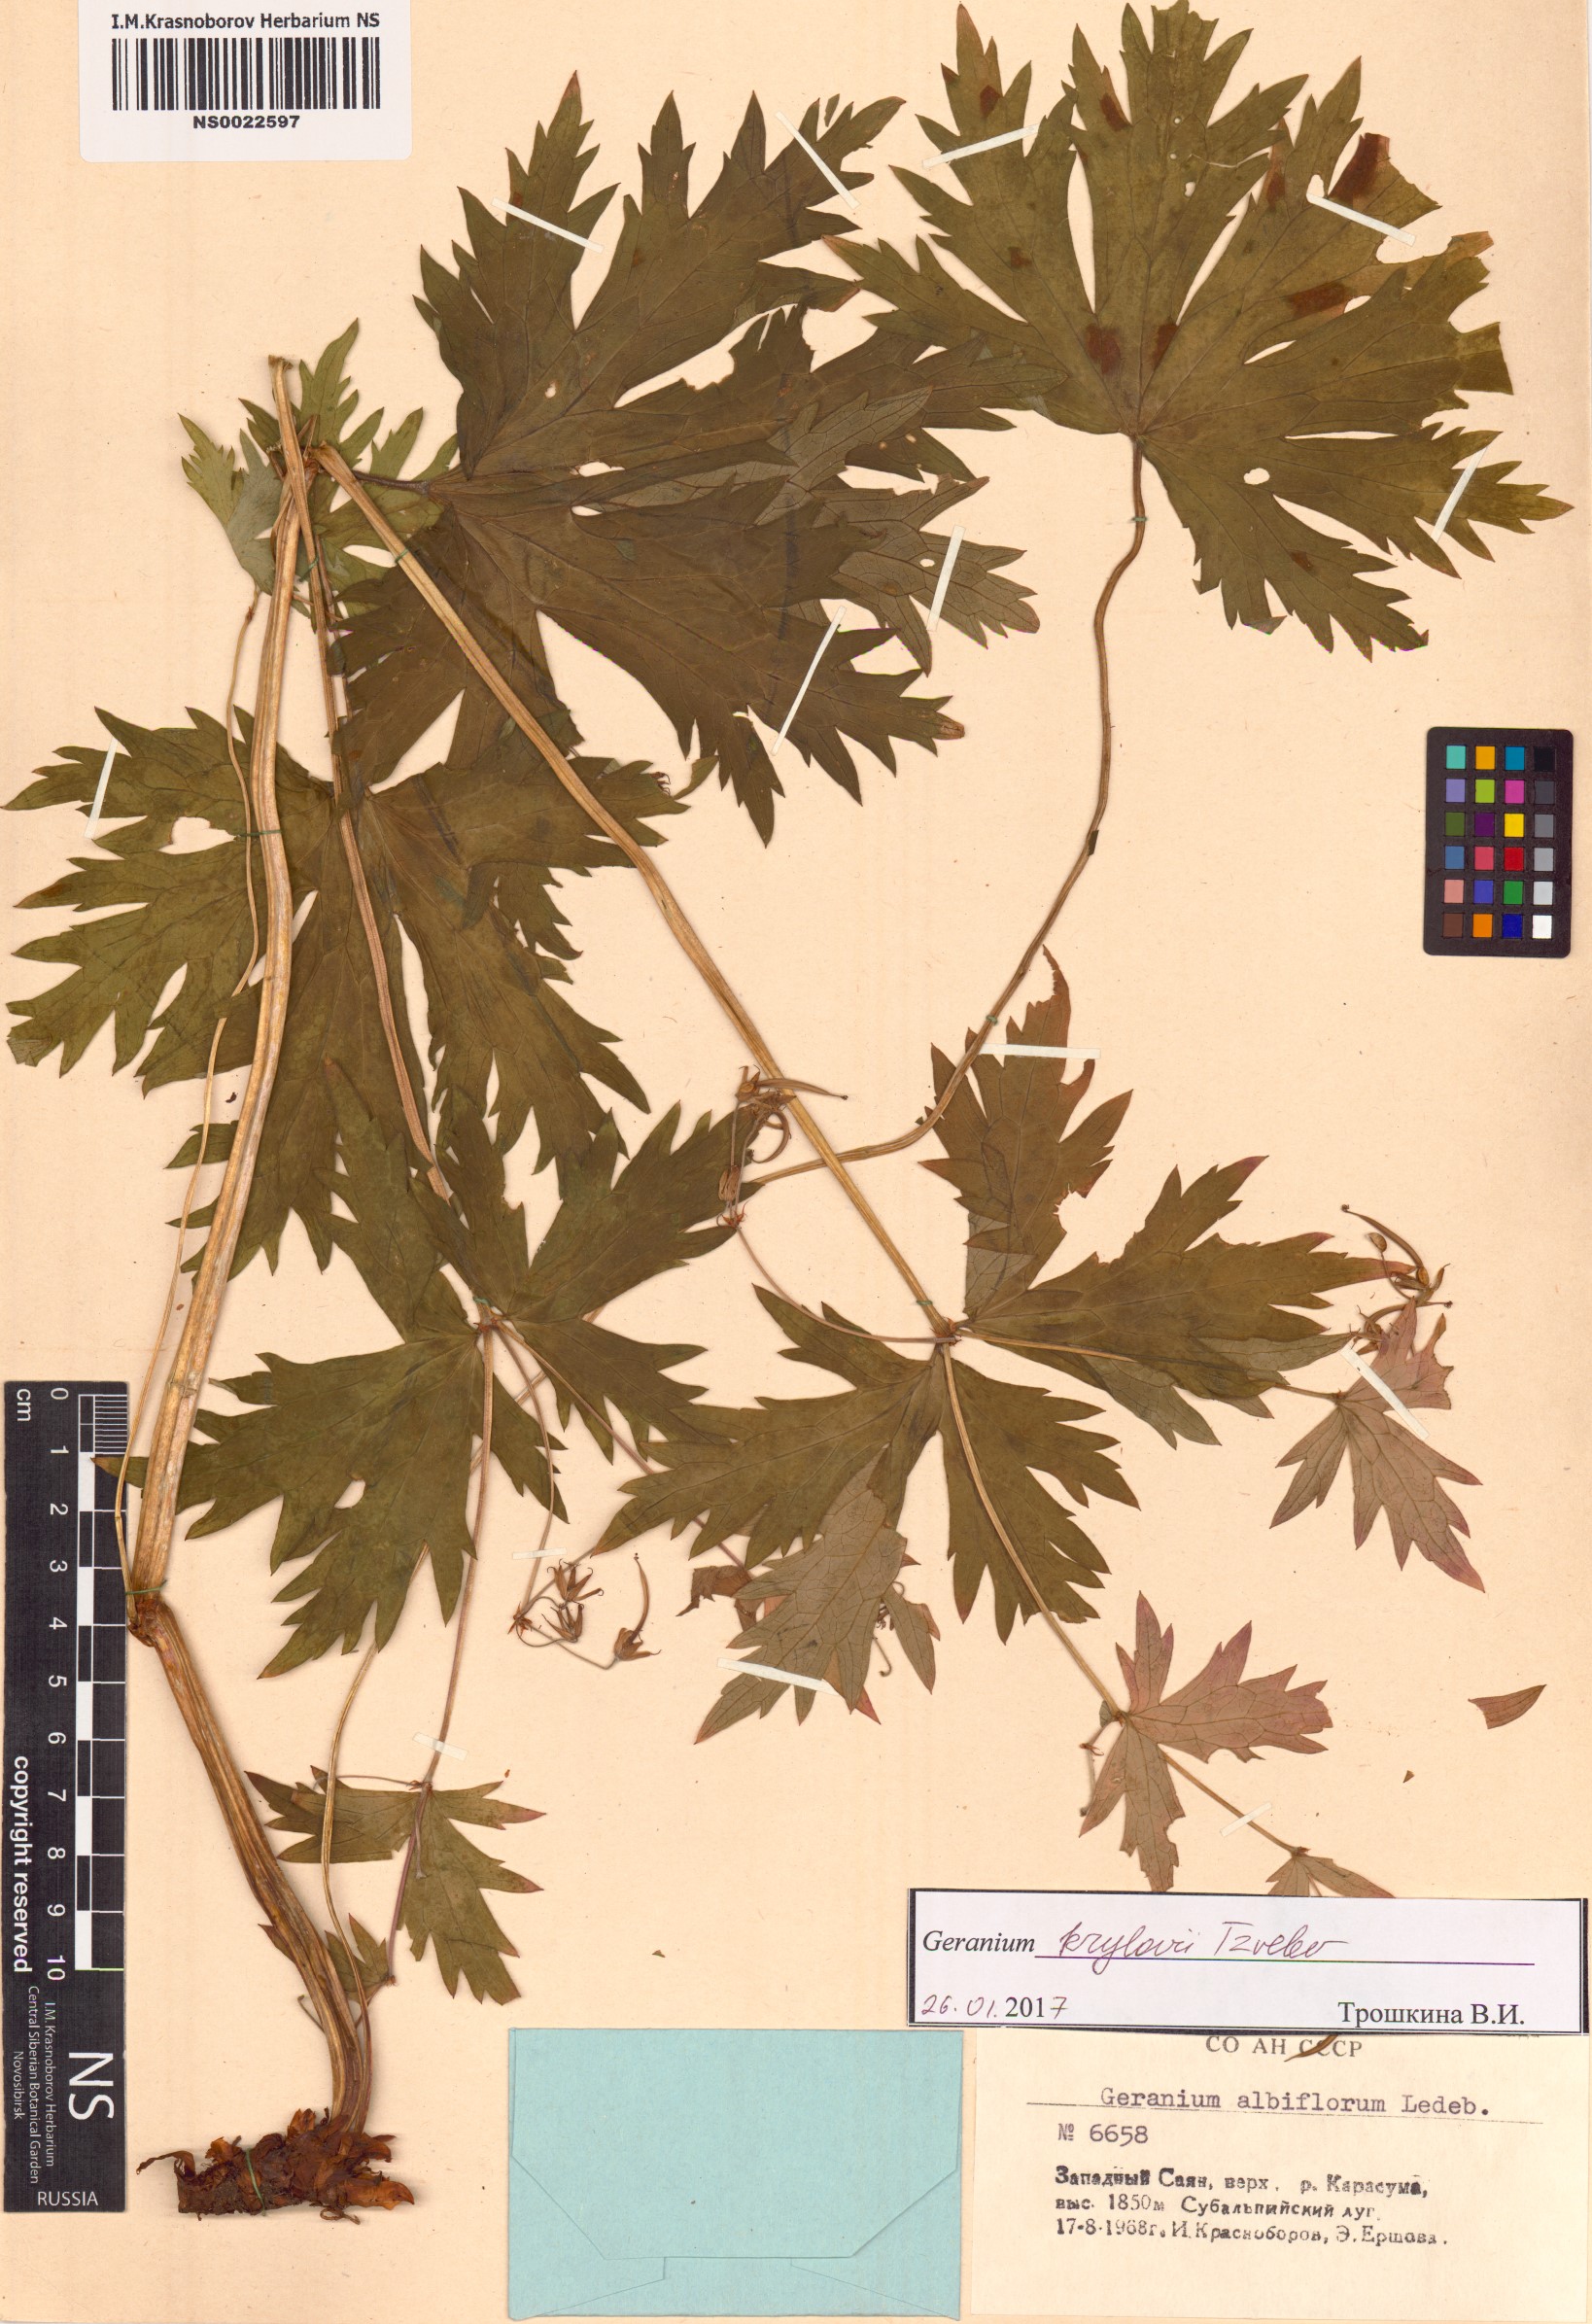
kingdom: Plantae
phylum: Tracheophyta
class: Magnoliopsida
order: Geraniales
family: Geraniaceae
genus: Geranium
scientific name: Geranium sylvaticum
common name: Wood crane's-bill
